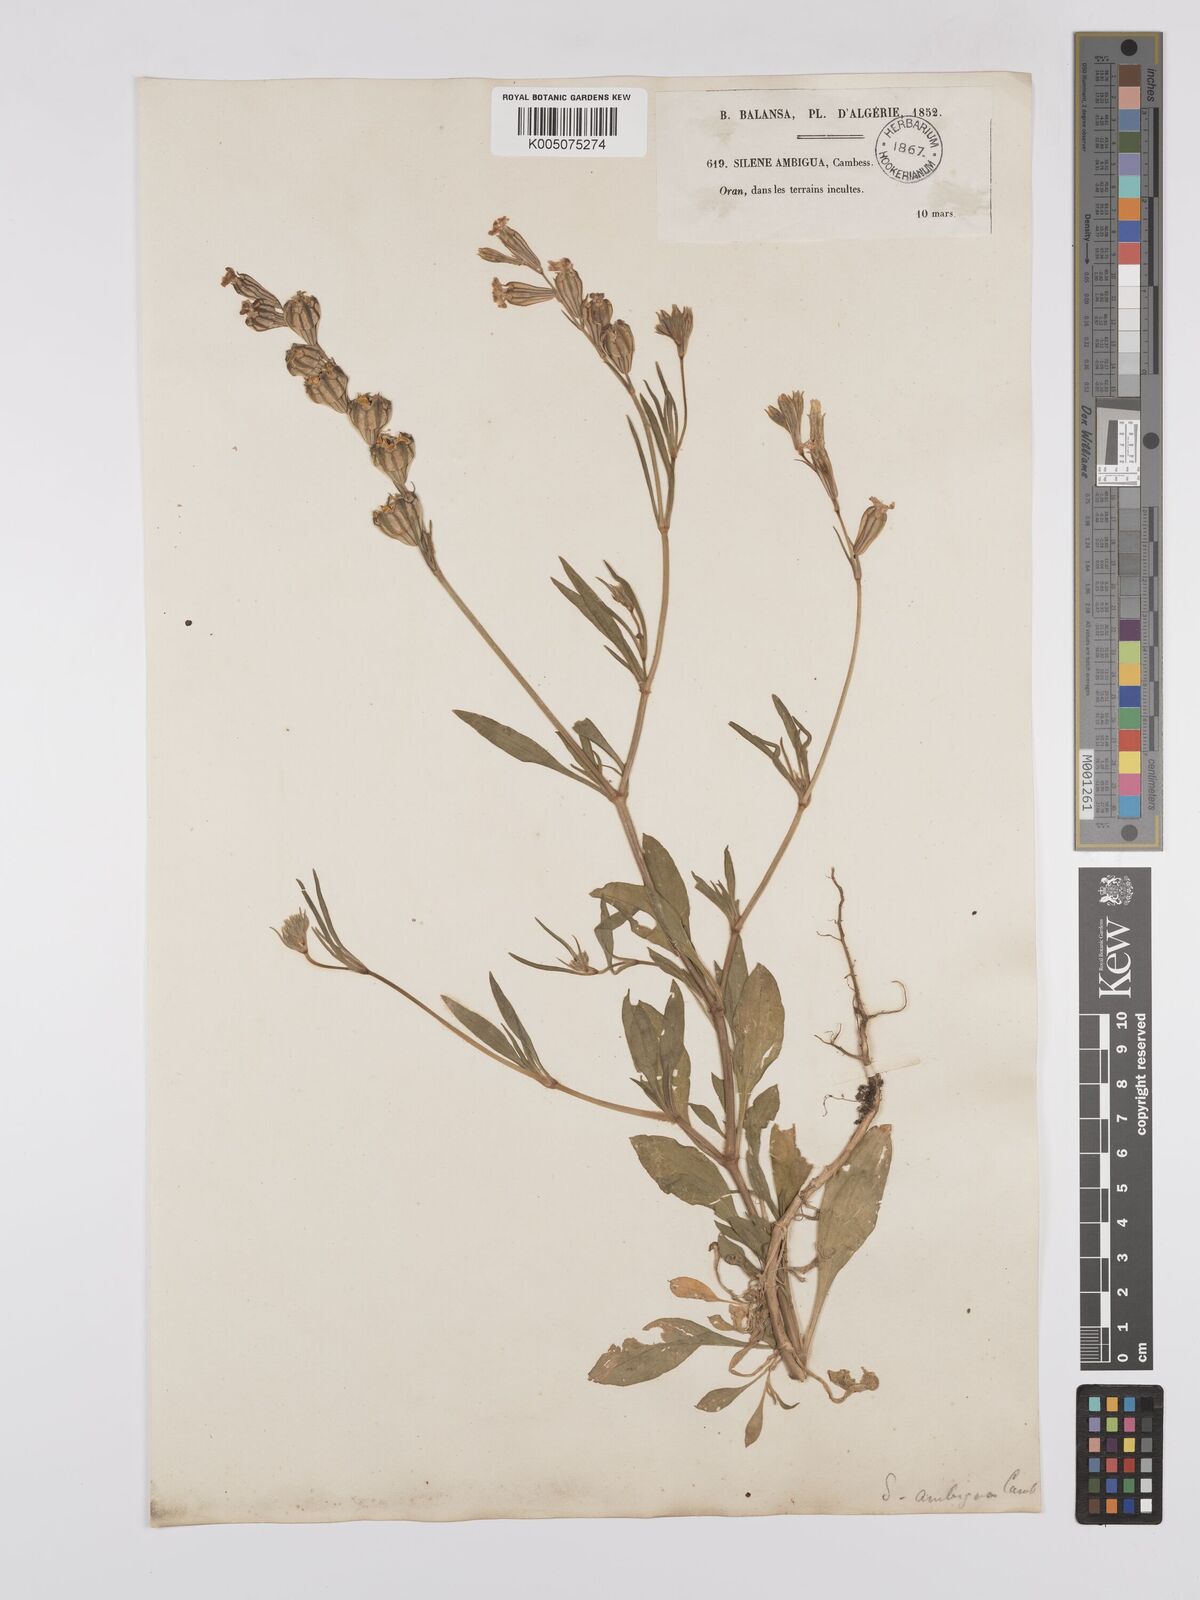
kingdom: Plantae
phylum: Tracheophyta
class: Magnoliopsida
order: Caryophyllales
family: Caryophyllaceae
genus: Silene
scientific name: Silene secundiflora
